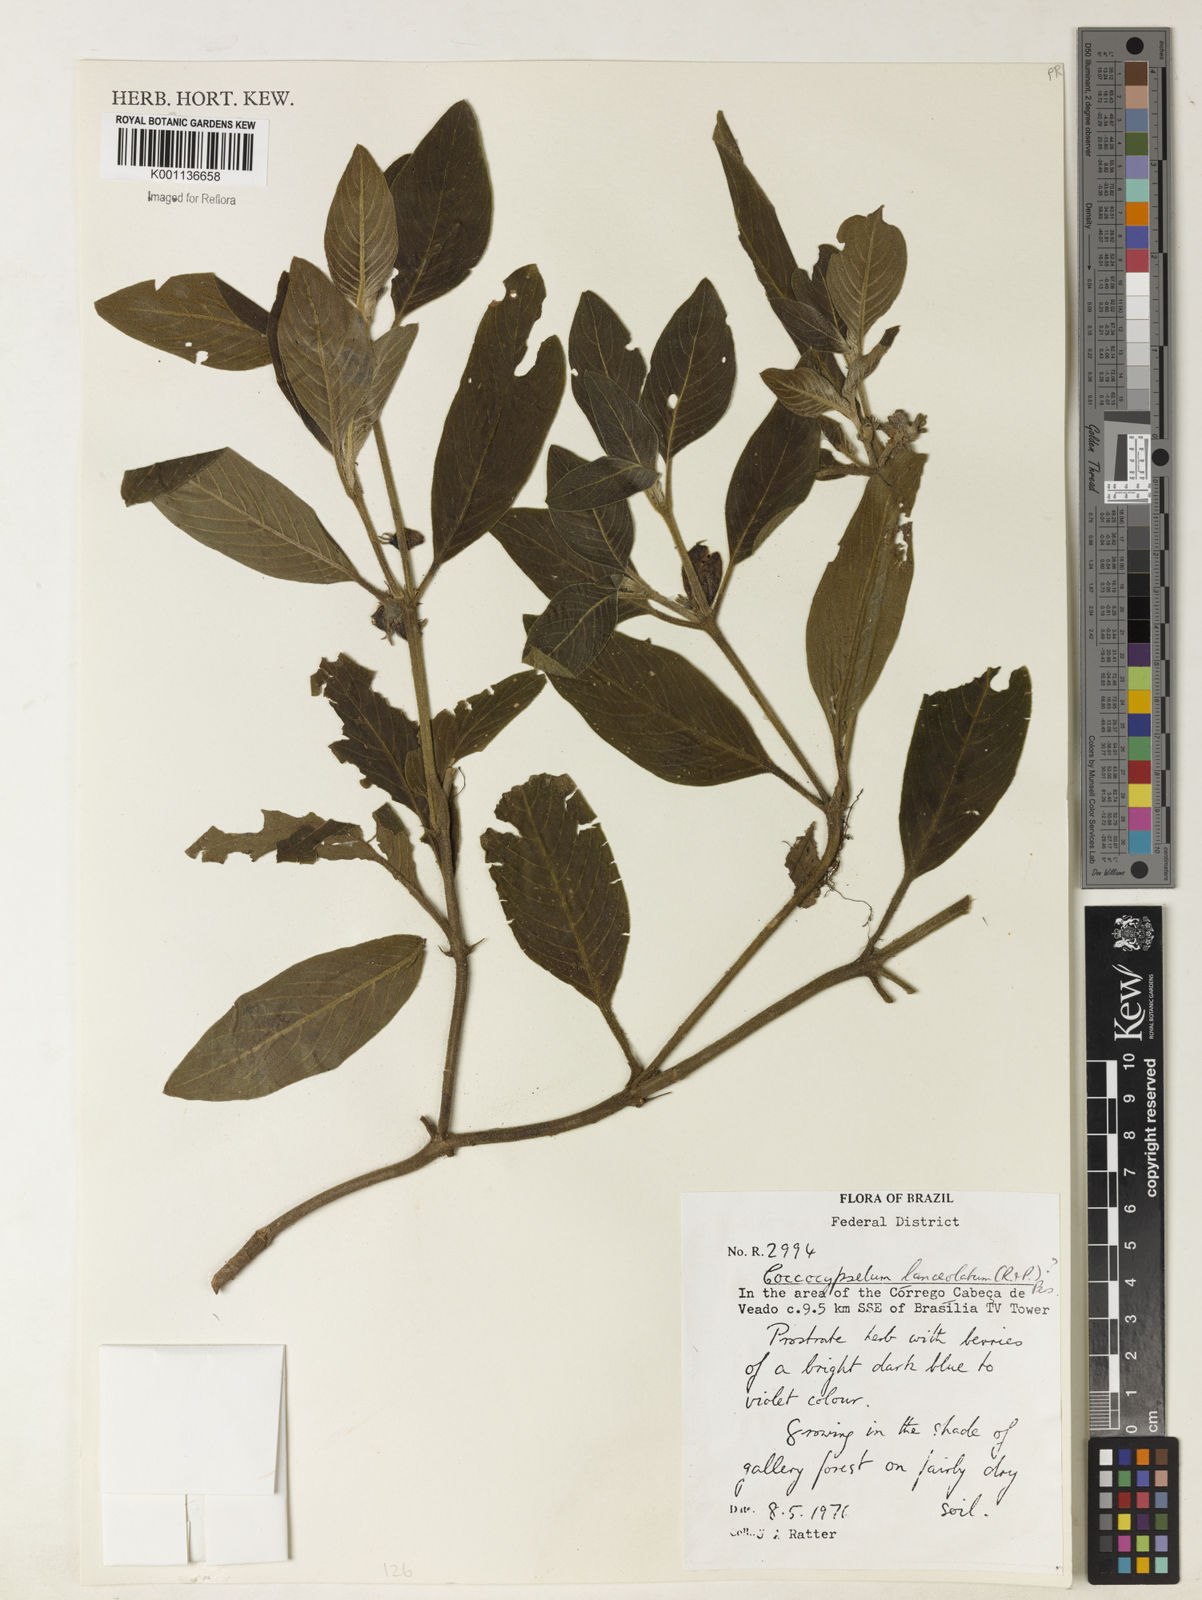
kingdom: Plantae
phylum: Tracheophyta
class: Magnoliopsida
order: Gentianales
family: Rubiaceae
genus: Coccocypselum
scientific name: Coccocypselum lanceolatum
